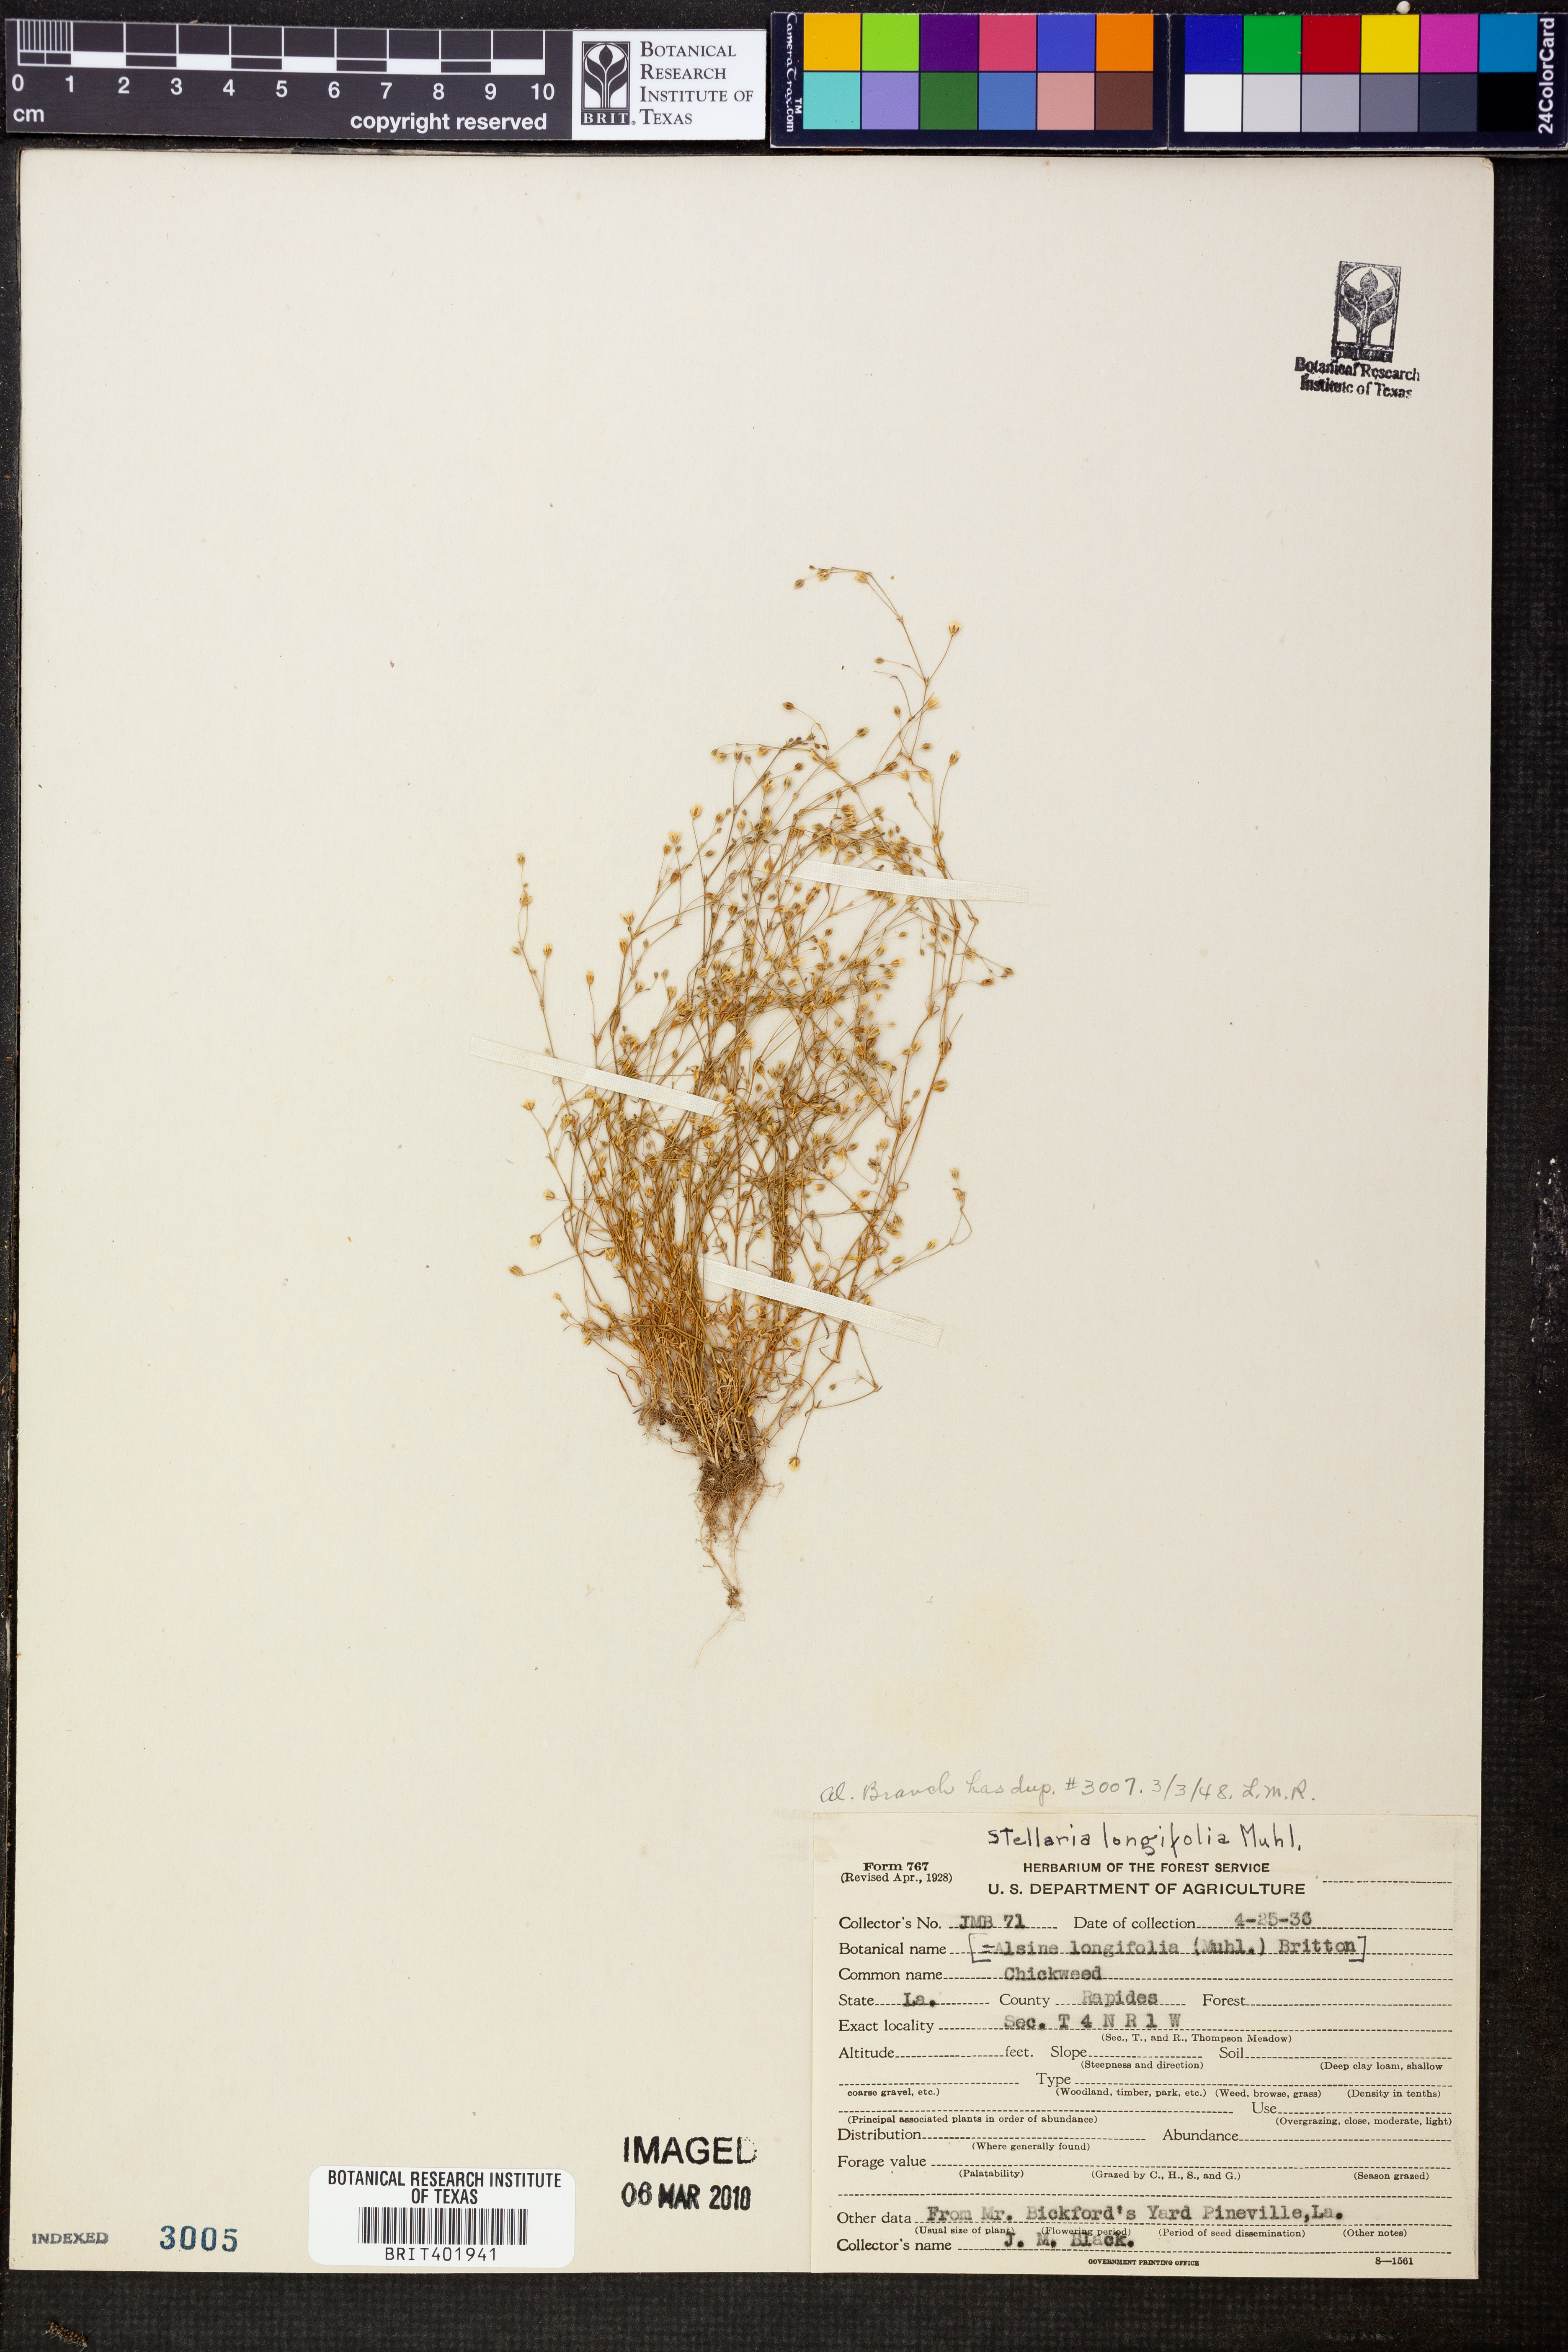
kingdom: Plantae
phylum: Tracheophyta
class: Magnoliopsida
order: Caryophyllales
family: Caryophyllaceae
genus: Stellaria
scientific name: Stellaria longifolia
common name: Long-leaved chickweed
